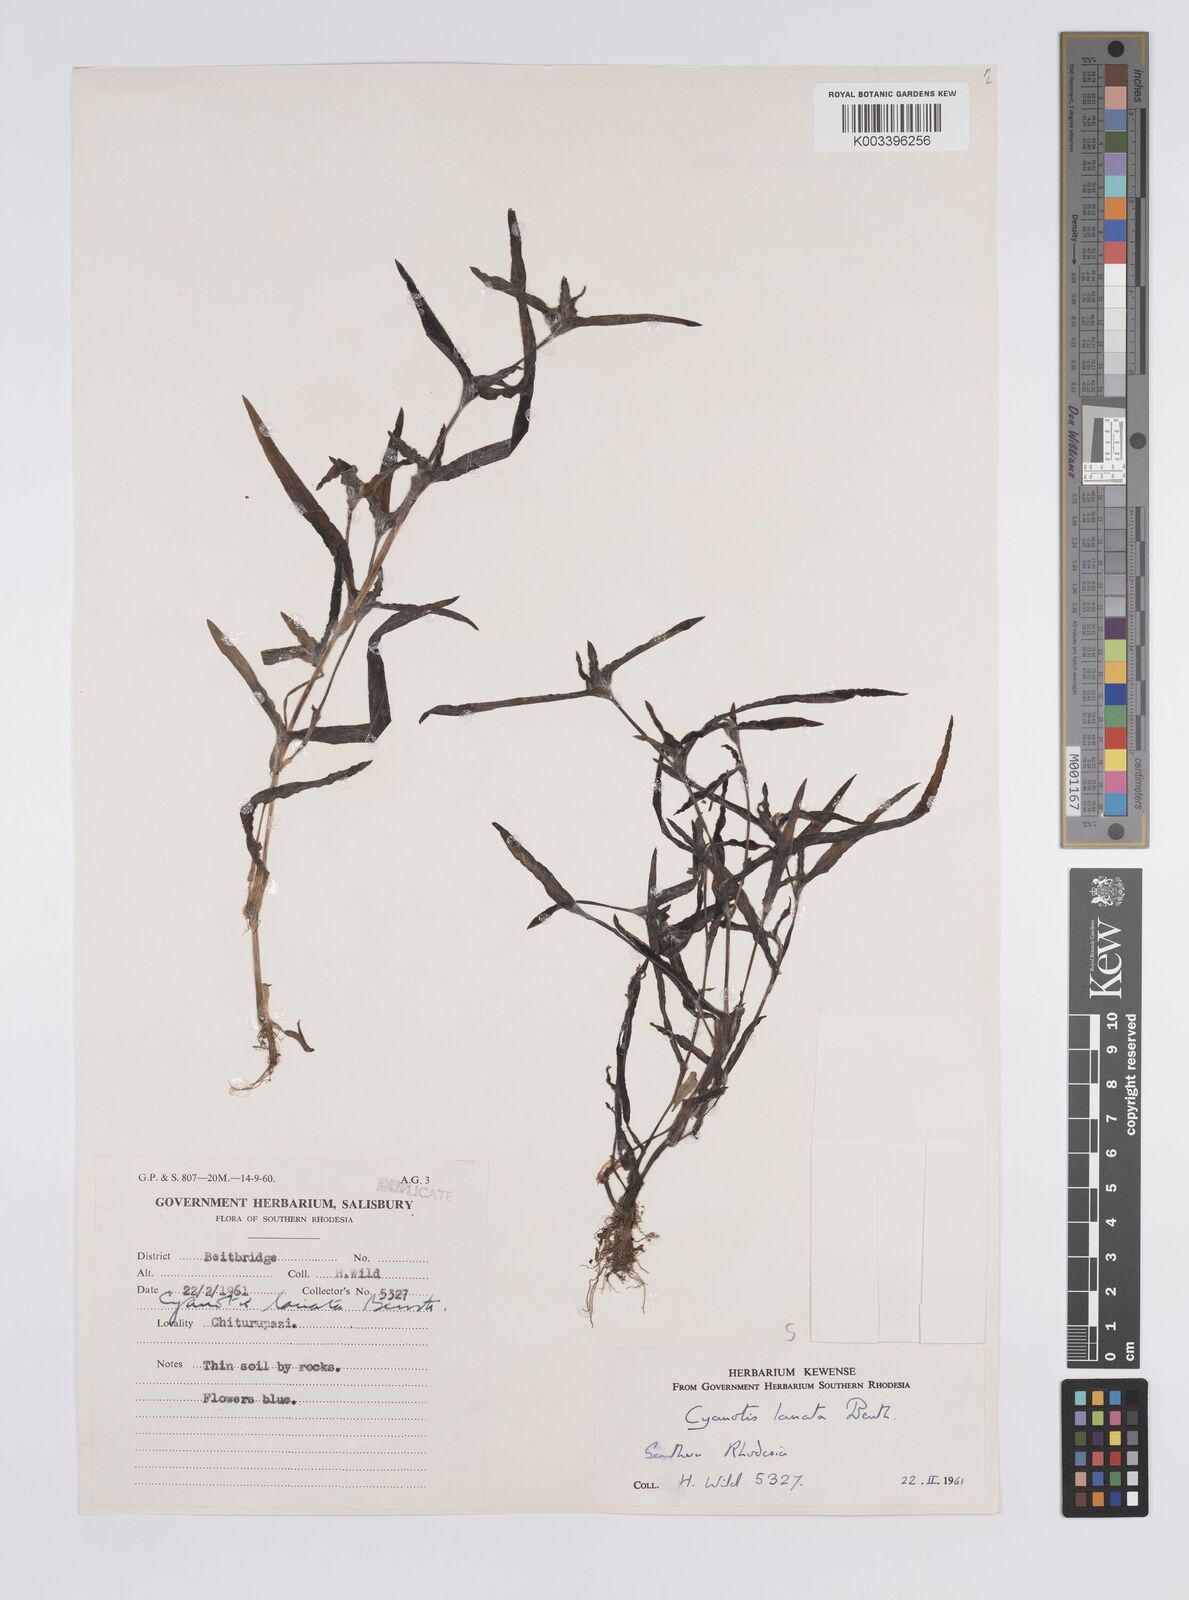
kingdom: Plantae
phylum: Tracheophyta
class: Liliopsida
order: Commelinales
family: Commelinaceae
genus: Cyanotis
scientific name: Cyanotis lanata
